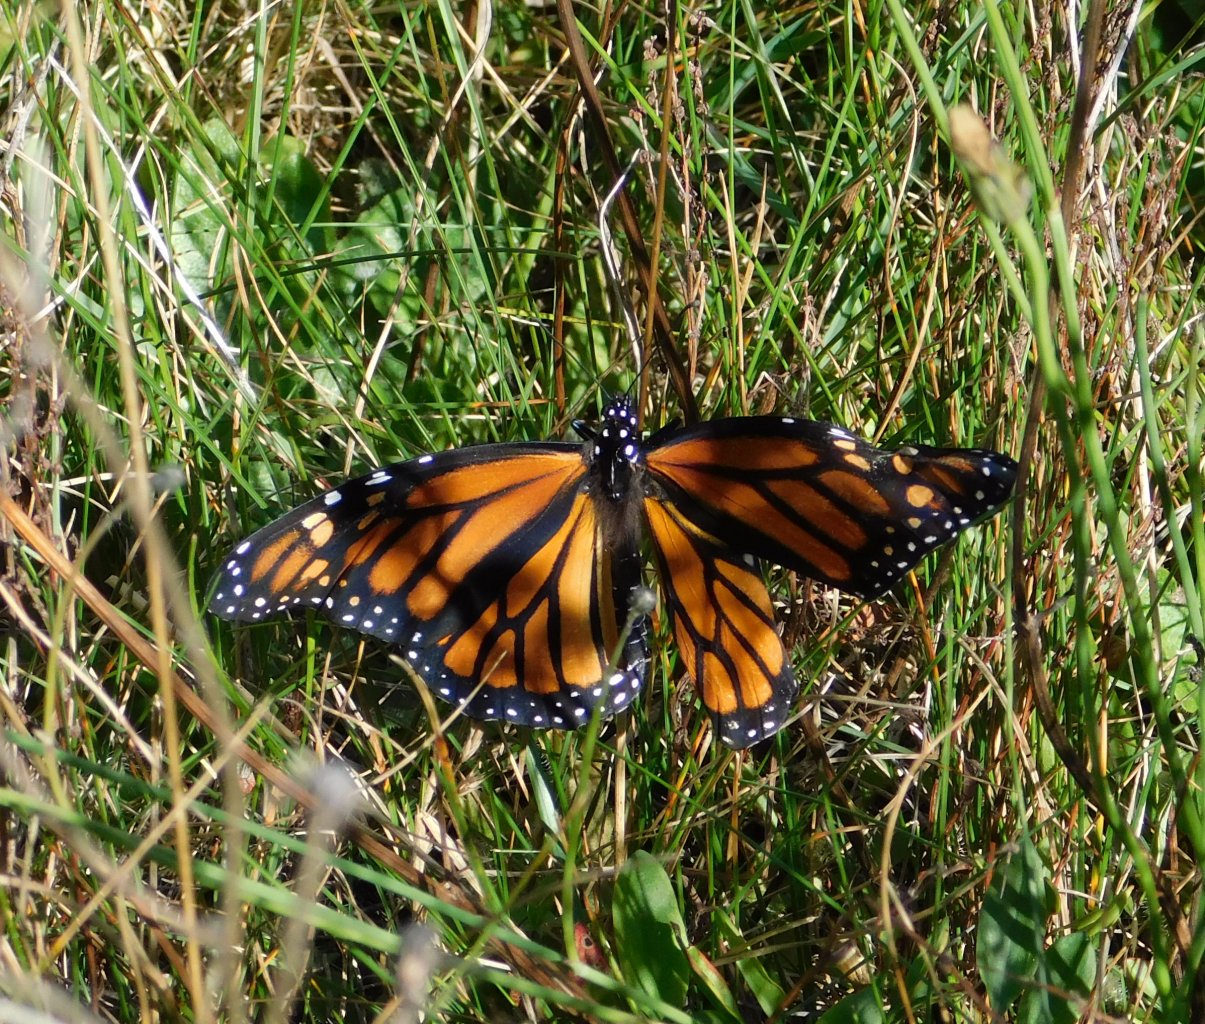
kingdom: Animalia
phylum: Arthropoda
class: Insecta
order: Lepidoptera
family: Nymphalidae
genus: Danaus
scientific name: Danaus plexippus
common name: Monarch
